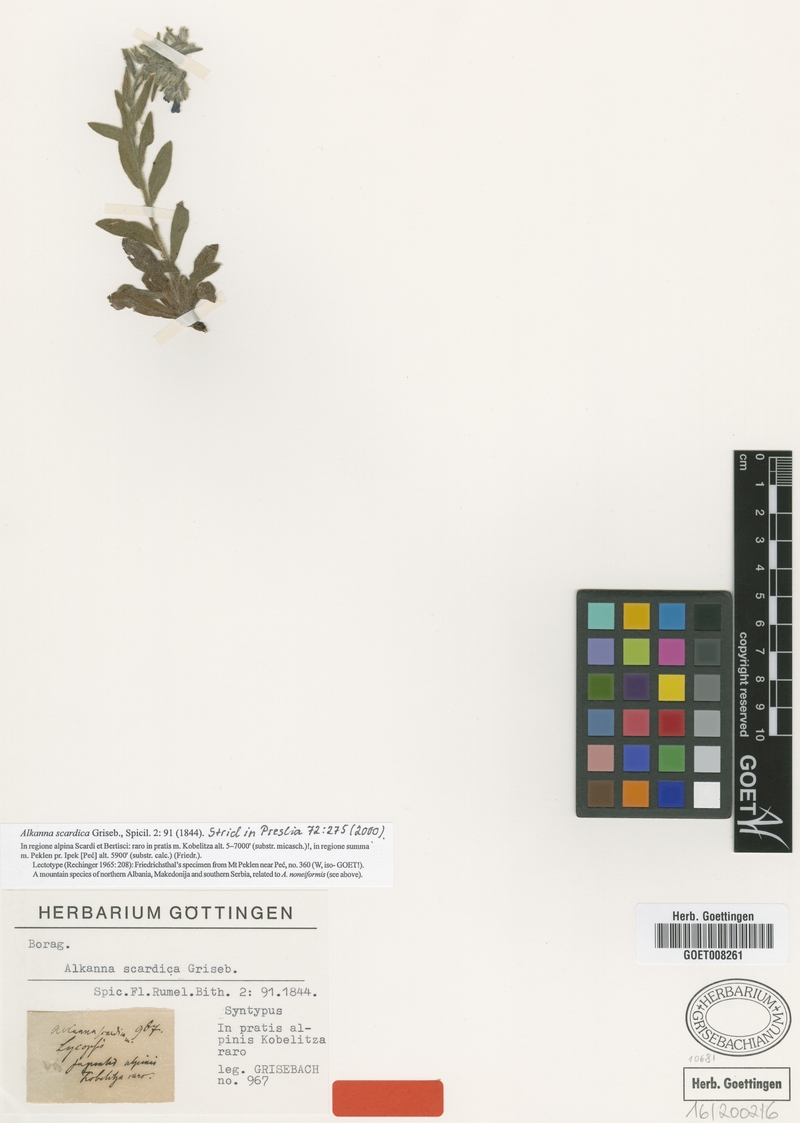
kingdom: Plantae
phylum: Tracheophyta
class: Magnoliopsida
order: Boraginales
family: Boraginaceae
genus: Alkanna
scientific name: Alkanna scardica
